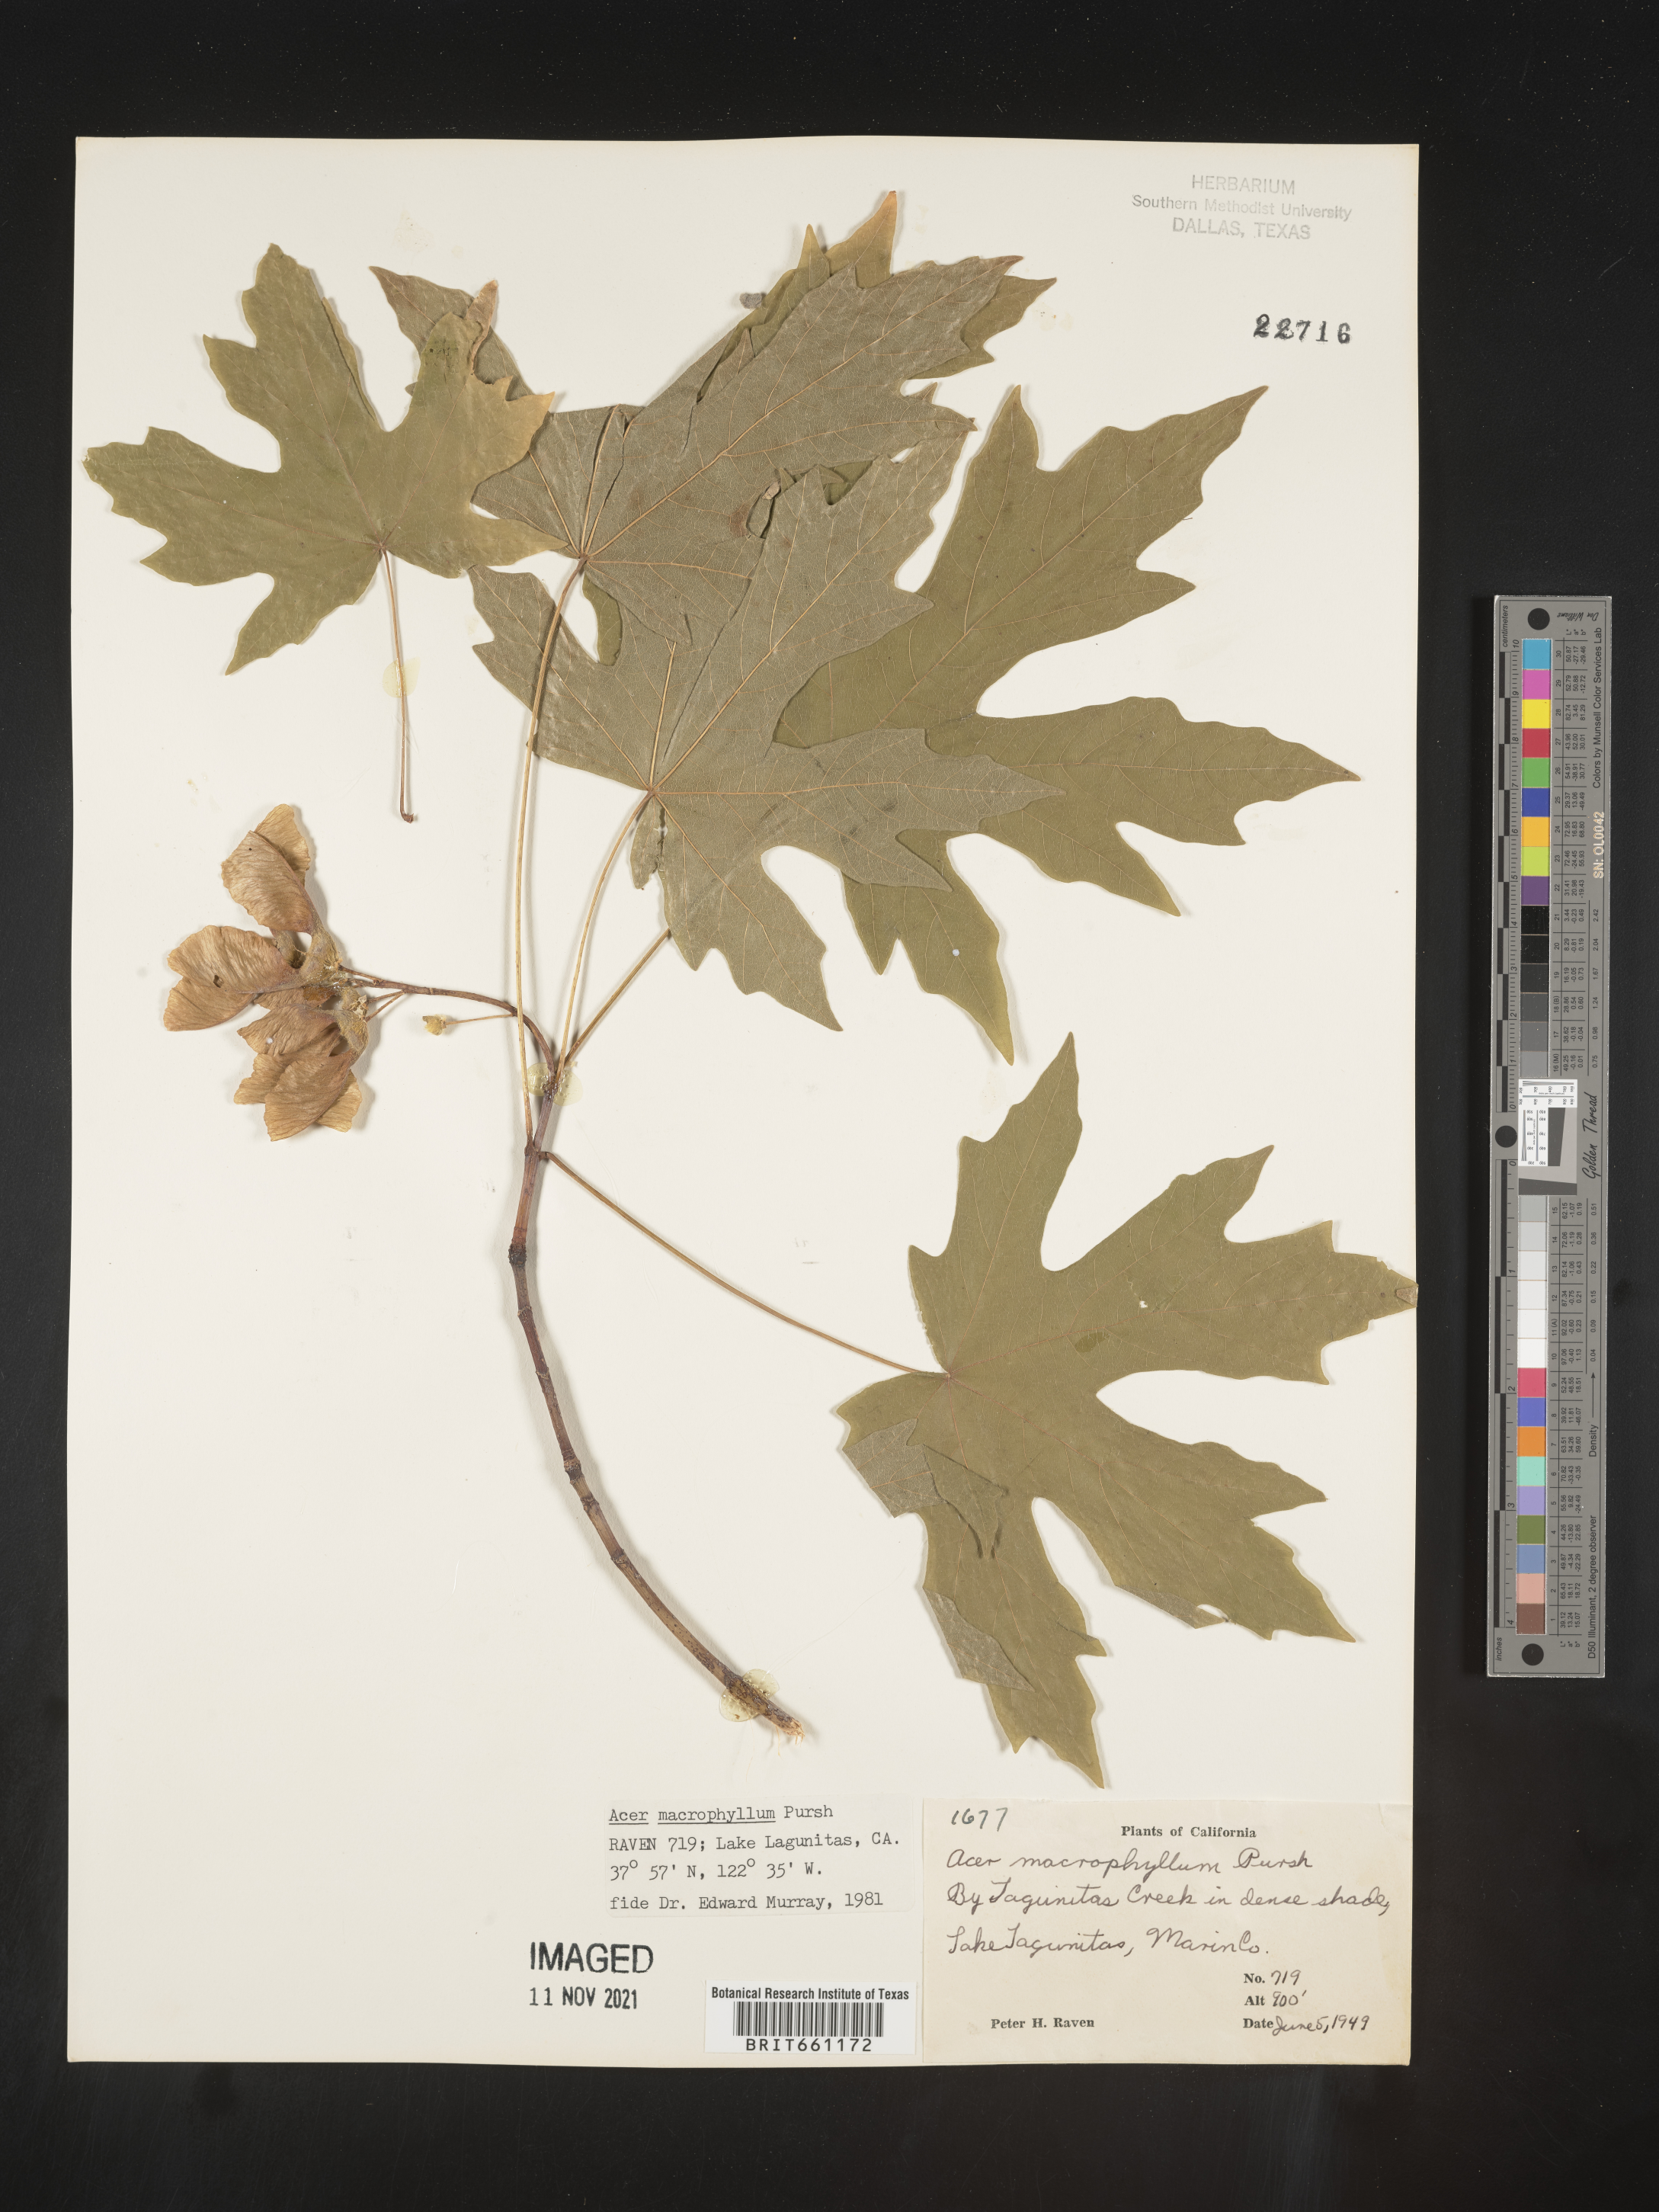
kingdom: Plantae
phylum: Tracheophyta
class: Magnoliopsida
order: Sapindales
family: Sapindaceae
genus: Acer
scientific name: Acer macrophyllum
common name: Oregon maple
